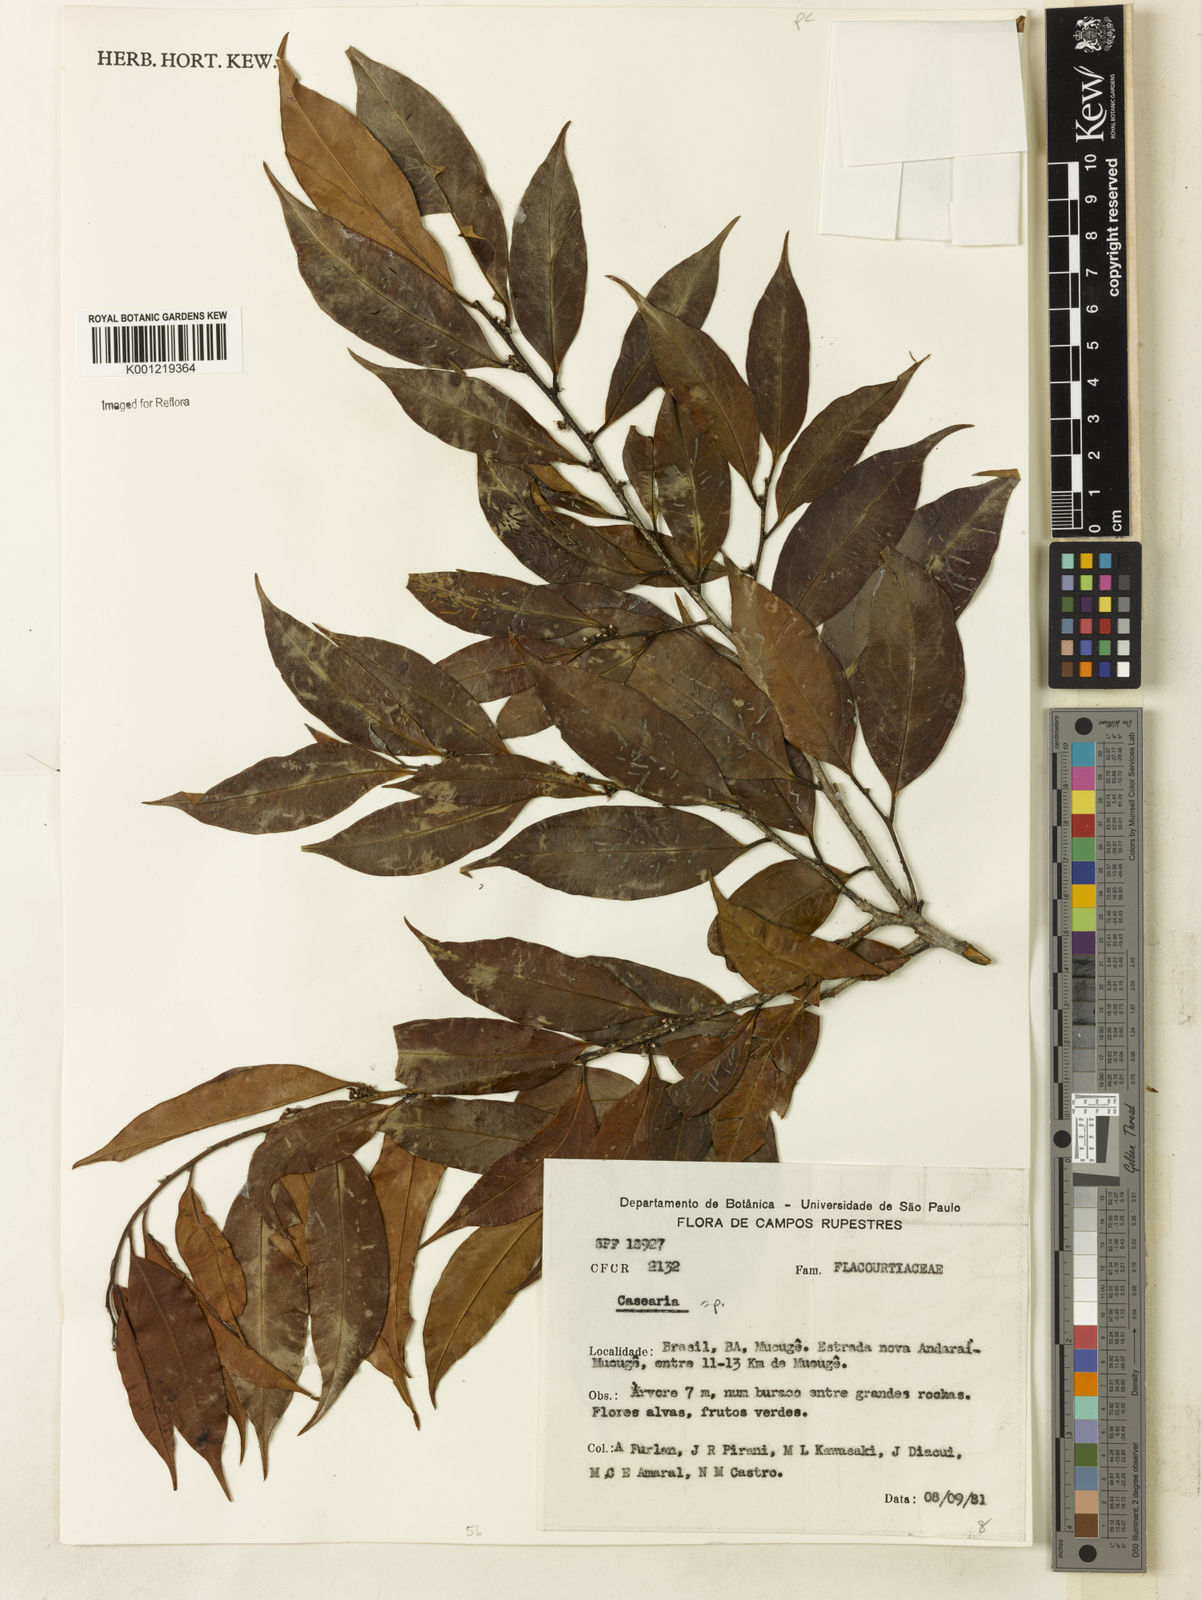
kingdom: Plantae
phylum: Tracheophyta
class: Magnoliopsida
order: Malpighiales
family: Salicaceae
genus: Casearia
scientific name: Casearia
